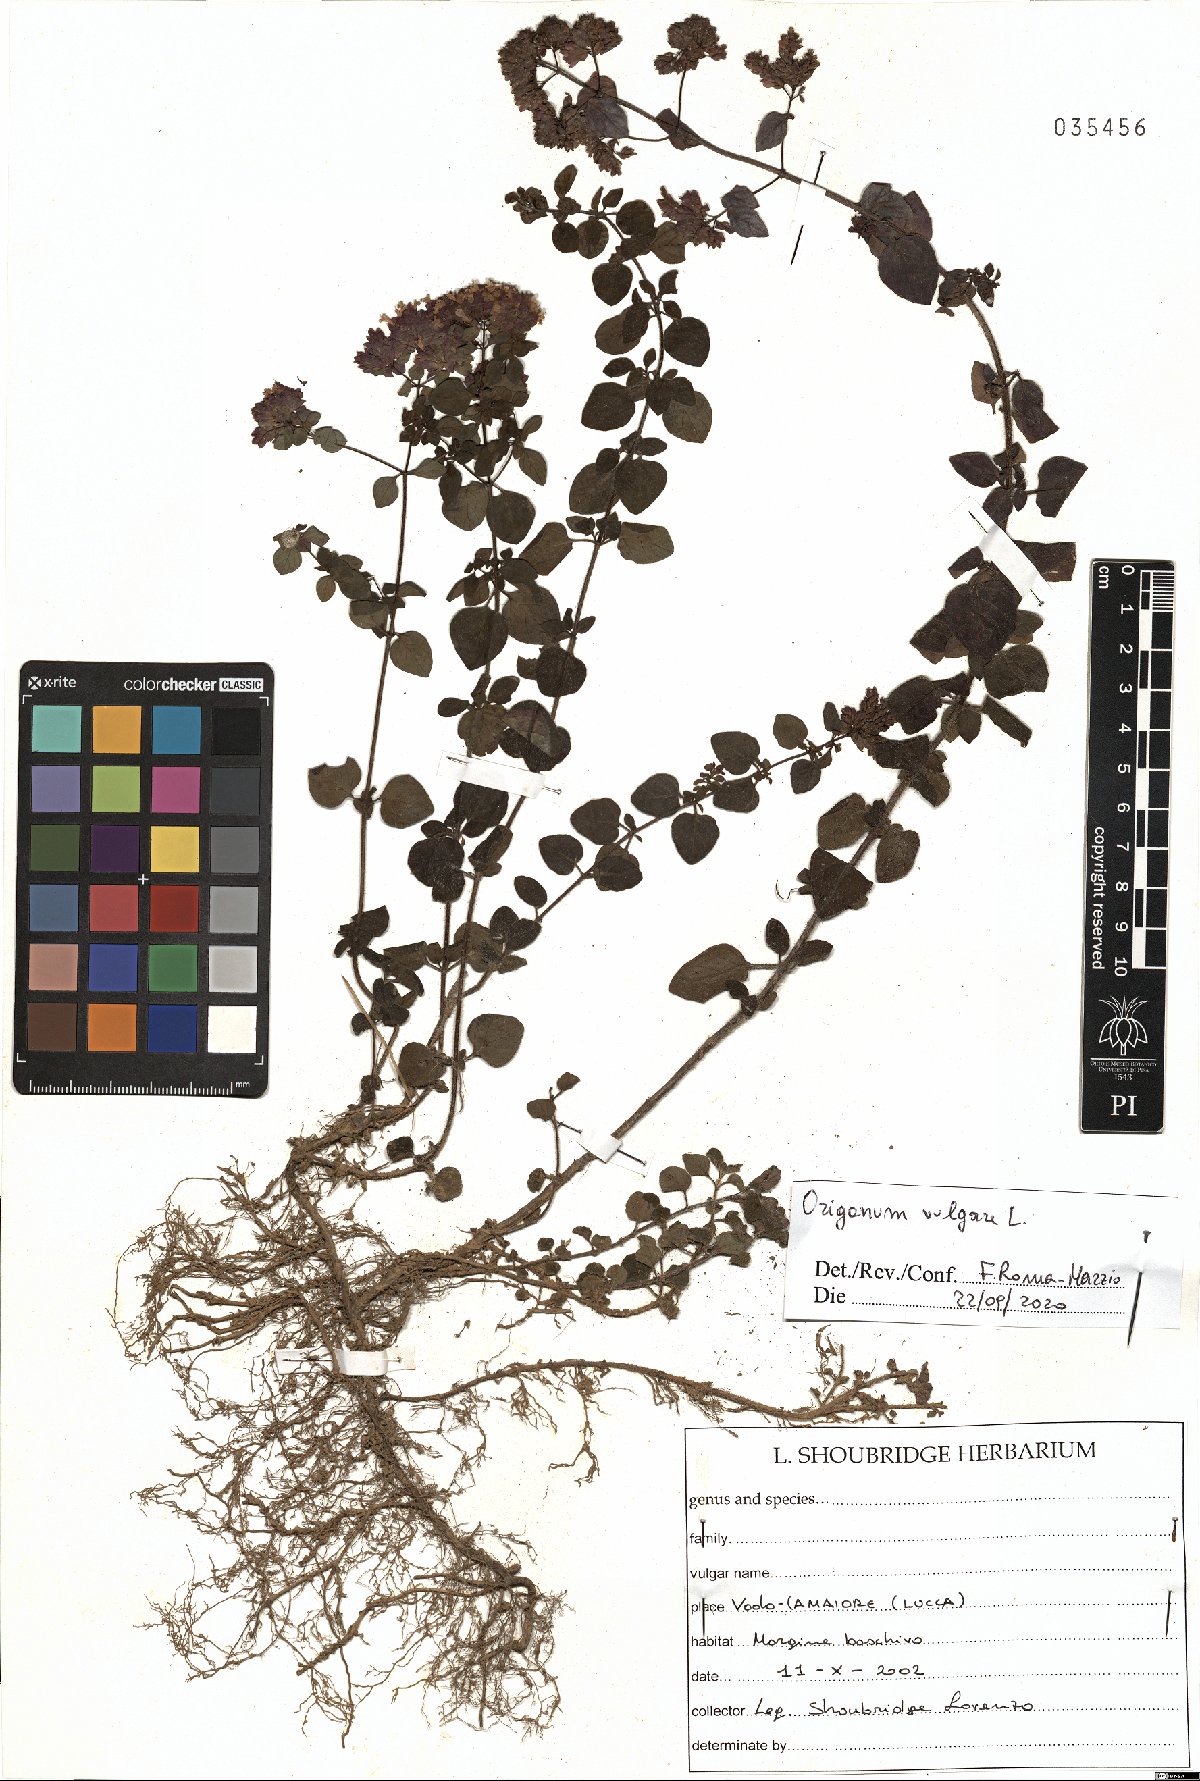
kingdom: Plantae
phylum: Tracheophyta
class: Magnoliopsida
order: Lamiales
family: Lamiaceae
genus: Origanum
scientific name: Origanum vulgare
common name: Wild marjoram
